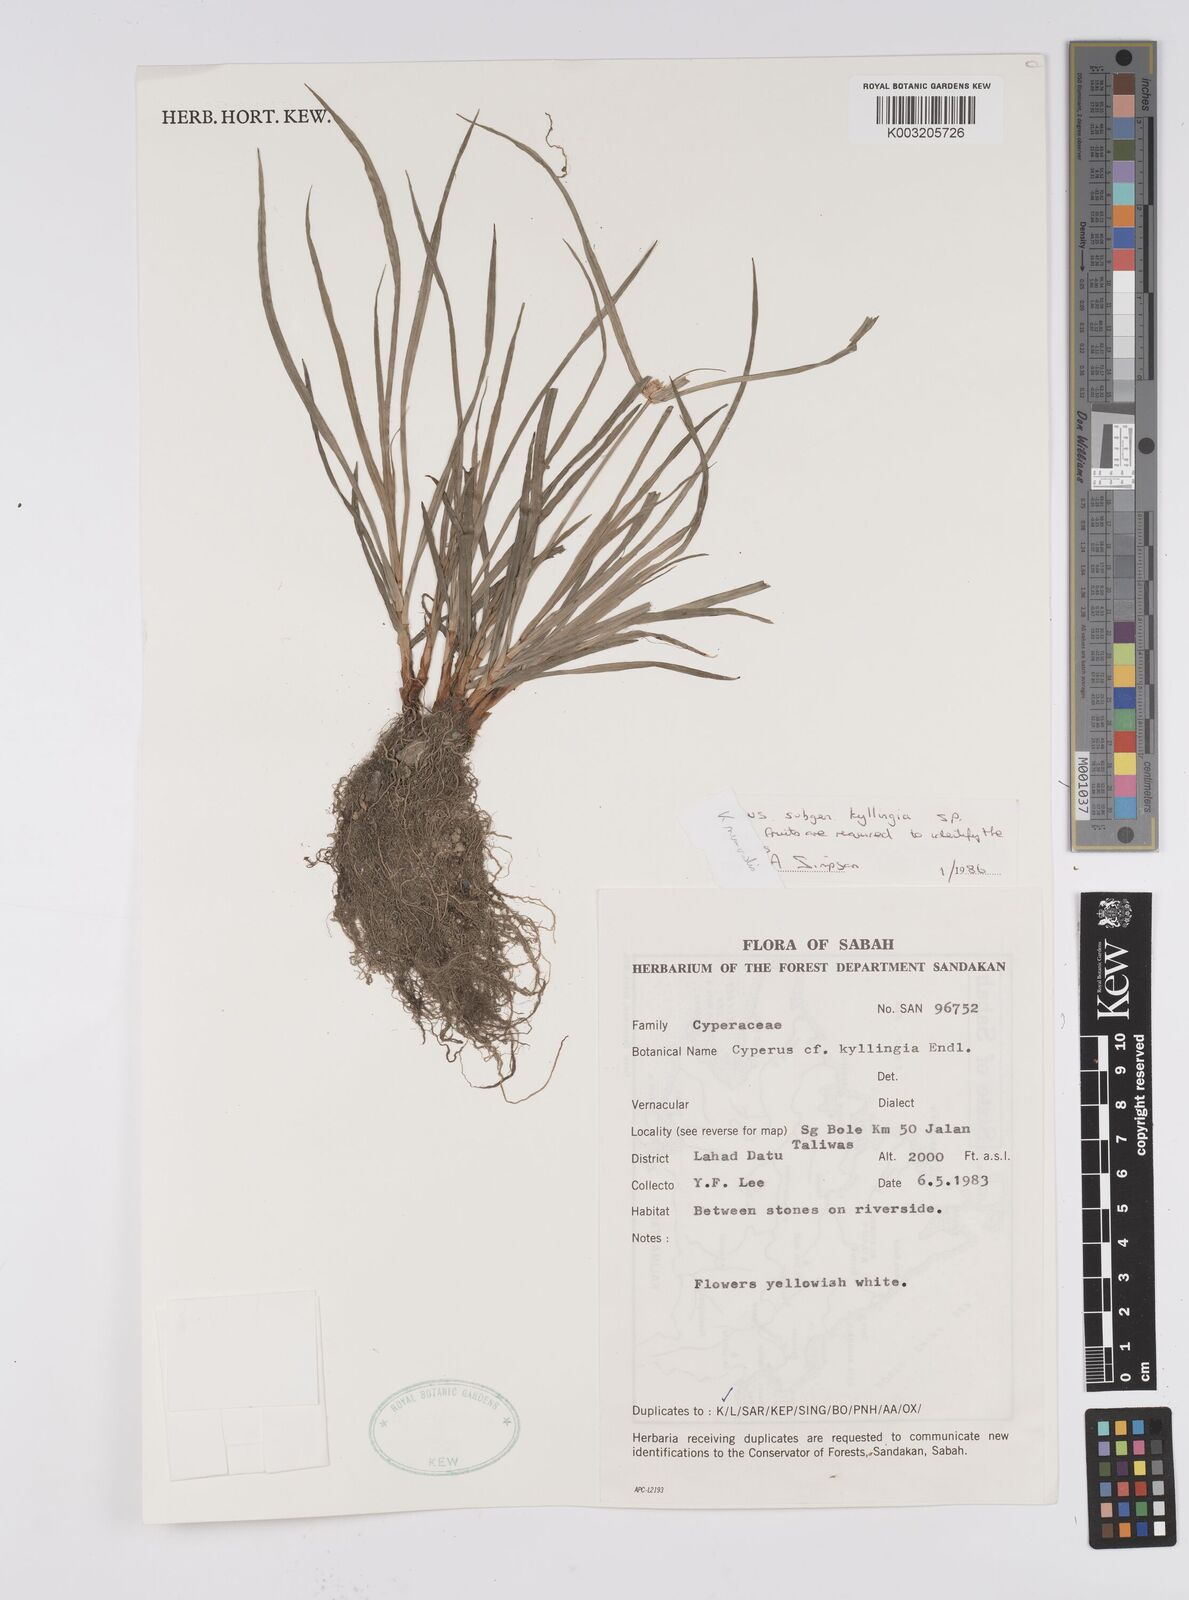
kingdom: Plantae
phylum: Tracheophyta
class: Liliopsida
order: Poales
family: Cyperaceae
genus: Cyperus
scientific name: Cyperus nemoralis
